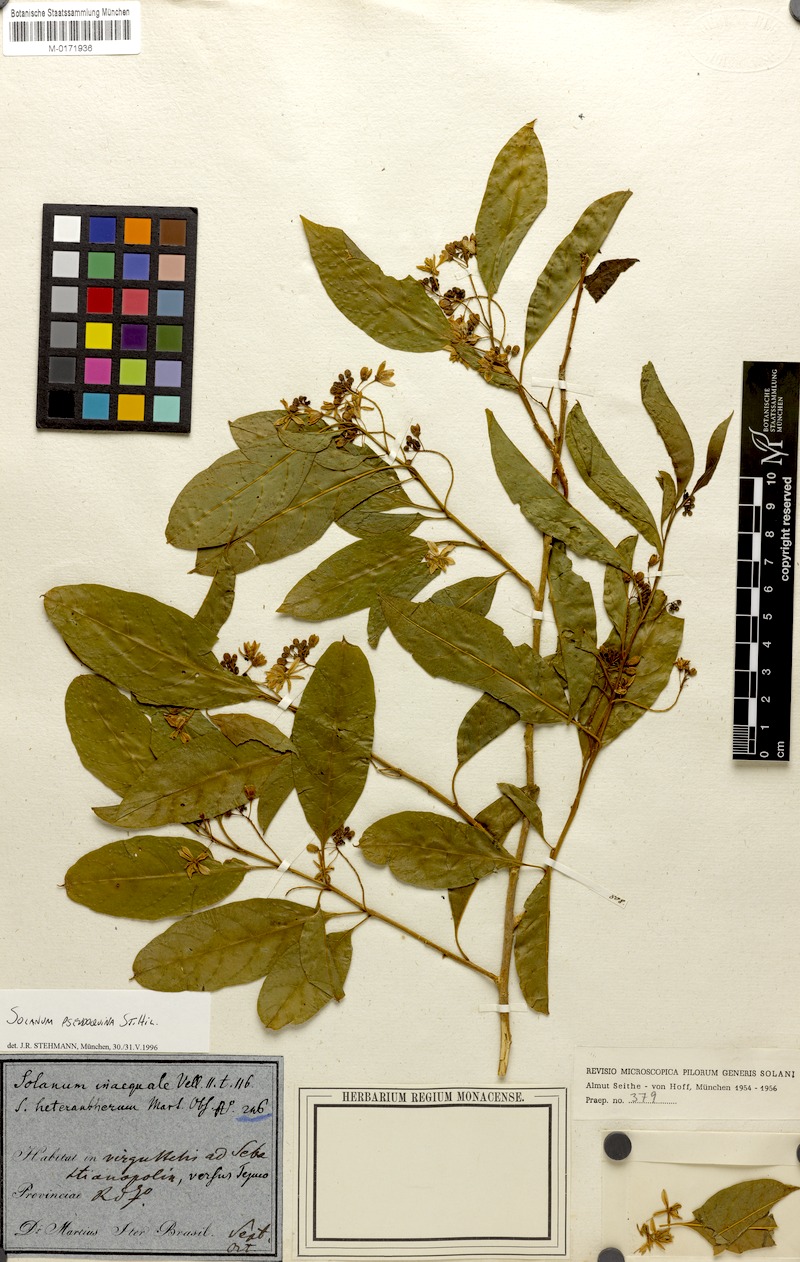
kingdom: Plantae
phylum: Tracheophyta
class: Magnoliopsida
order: Solanales
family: Solanaceae
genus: Solanum
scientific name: Solanum pseudoquina
